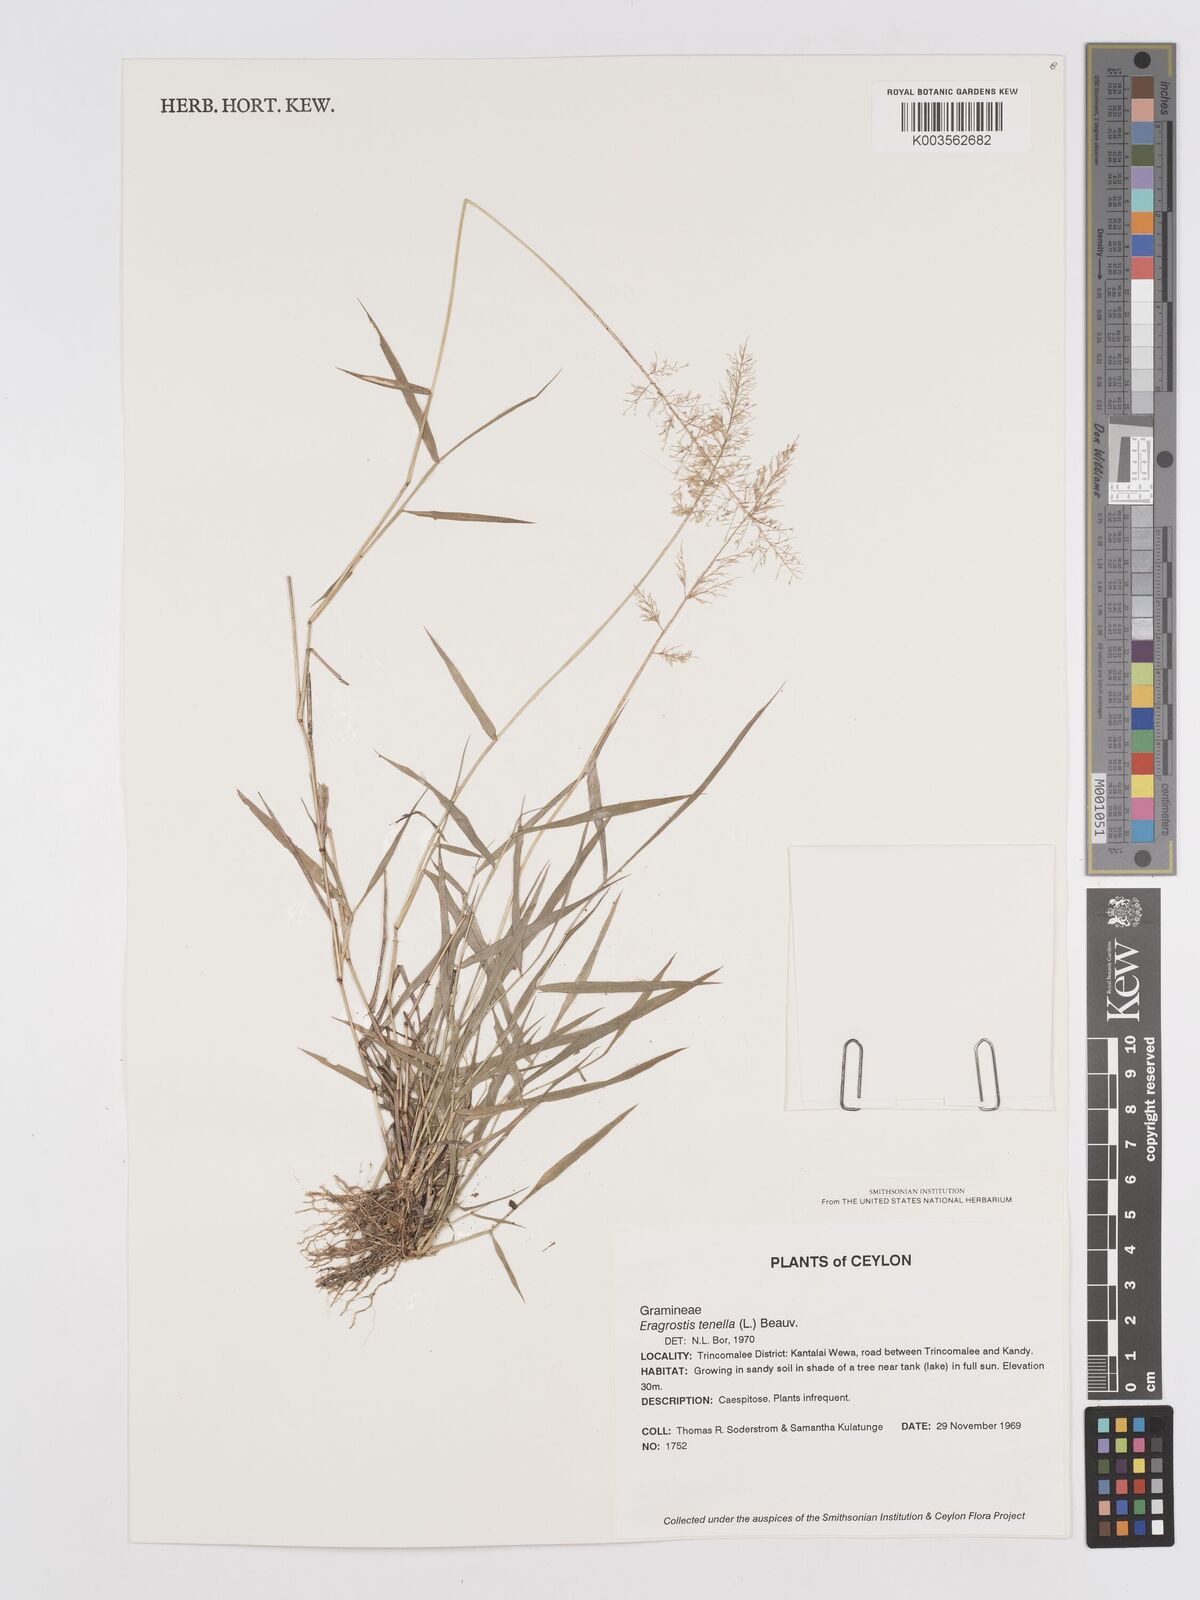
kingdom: Plantae
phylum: Tracheophyta
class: Liliopsida
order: Poales
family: Poaceae
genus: Eragrostis
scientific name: Eragrostis tenella
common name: Japanese lovegrass
